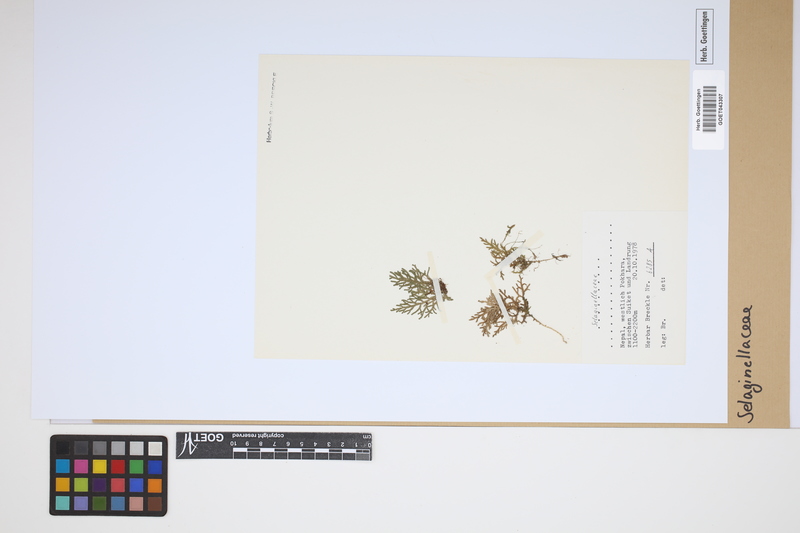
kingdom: Plantae
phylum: Tracheophyta
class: Lycopodiopsida
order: Selaginellales
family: Selaginellaceae
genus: Selaginella
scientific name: Selaginella
